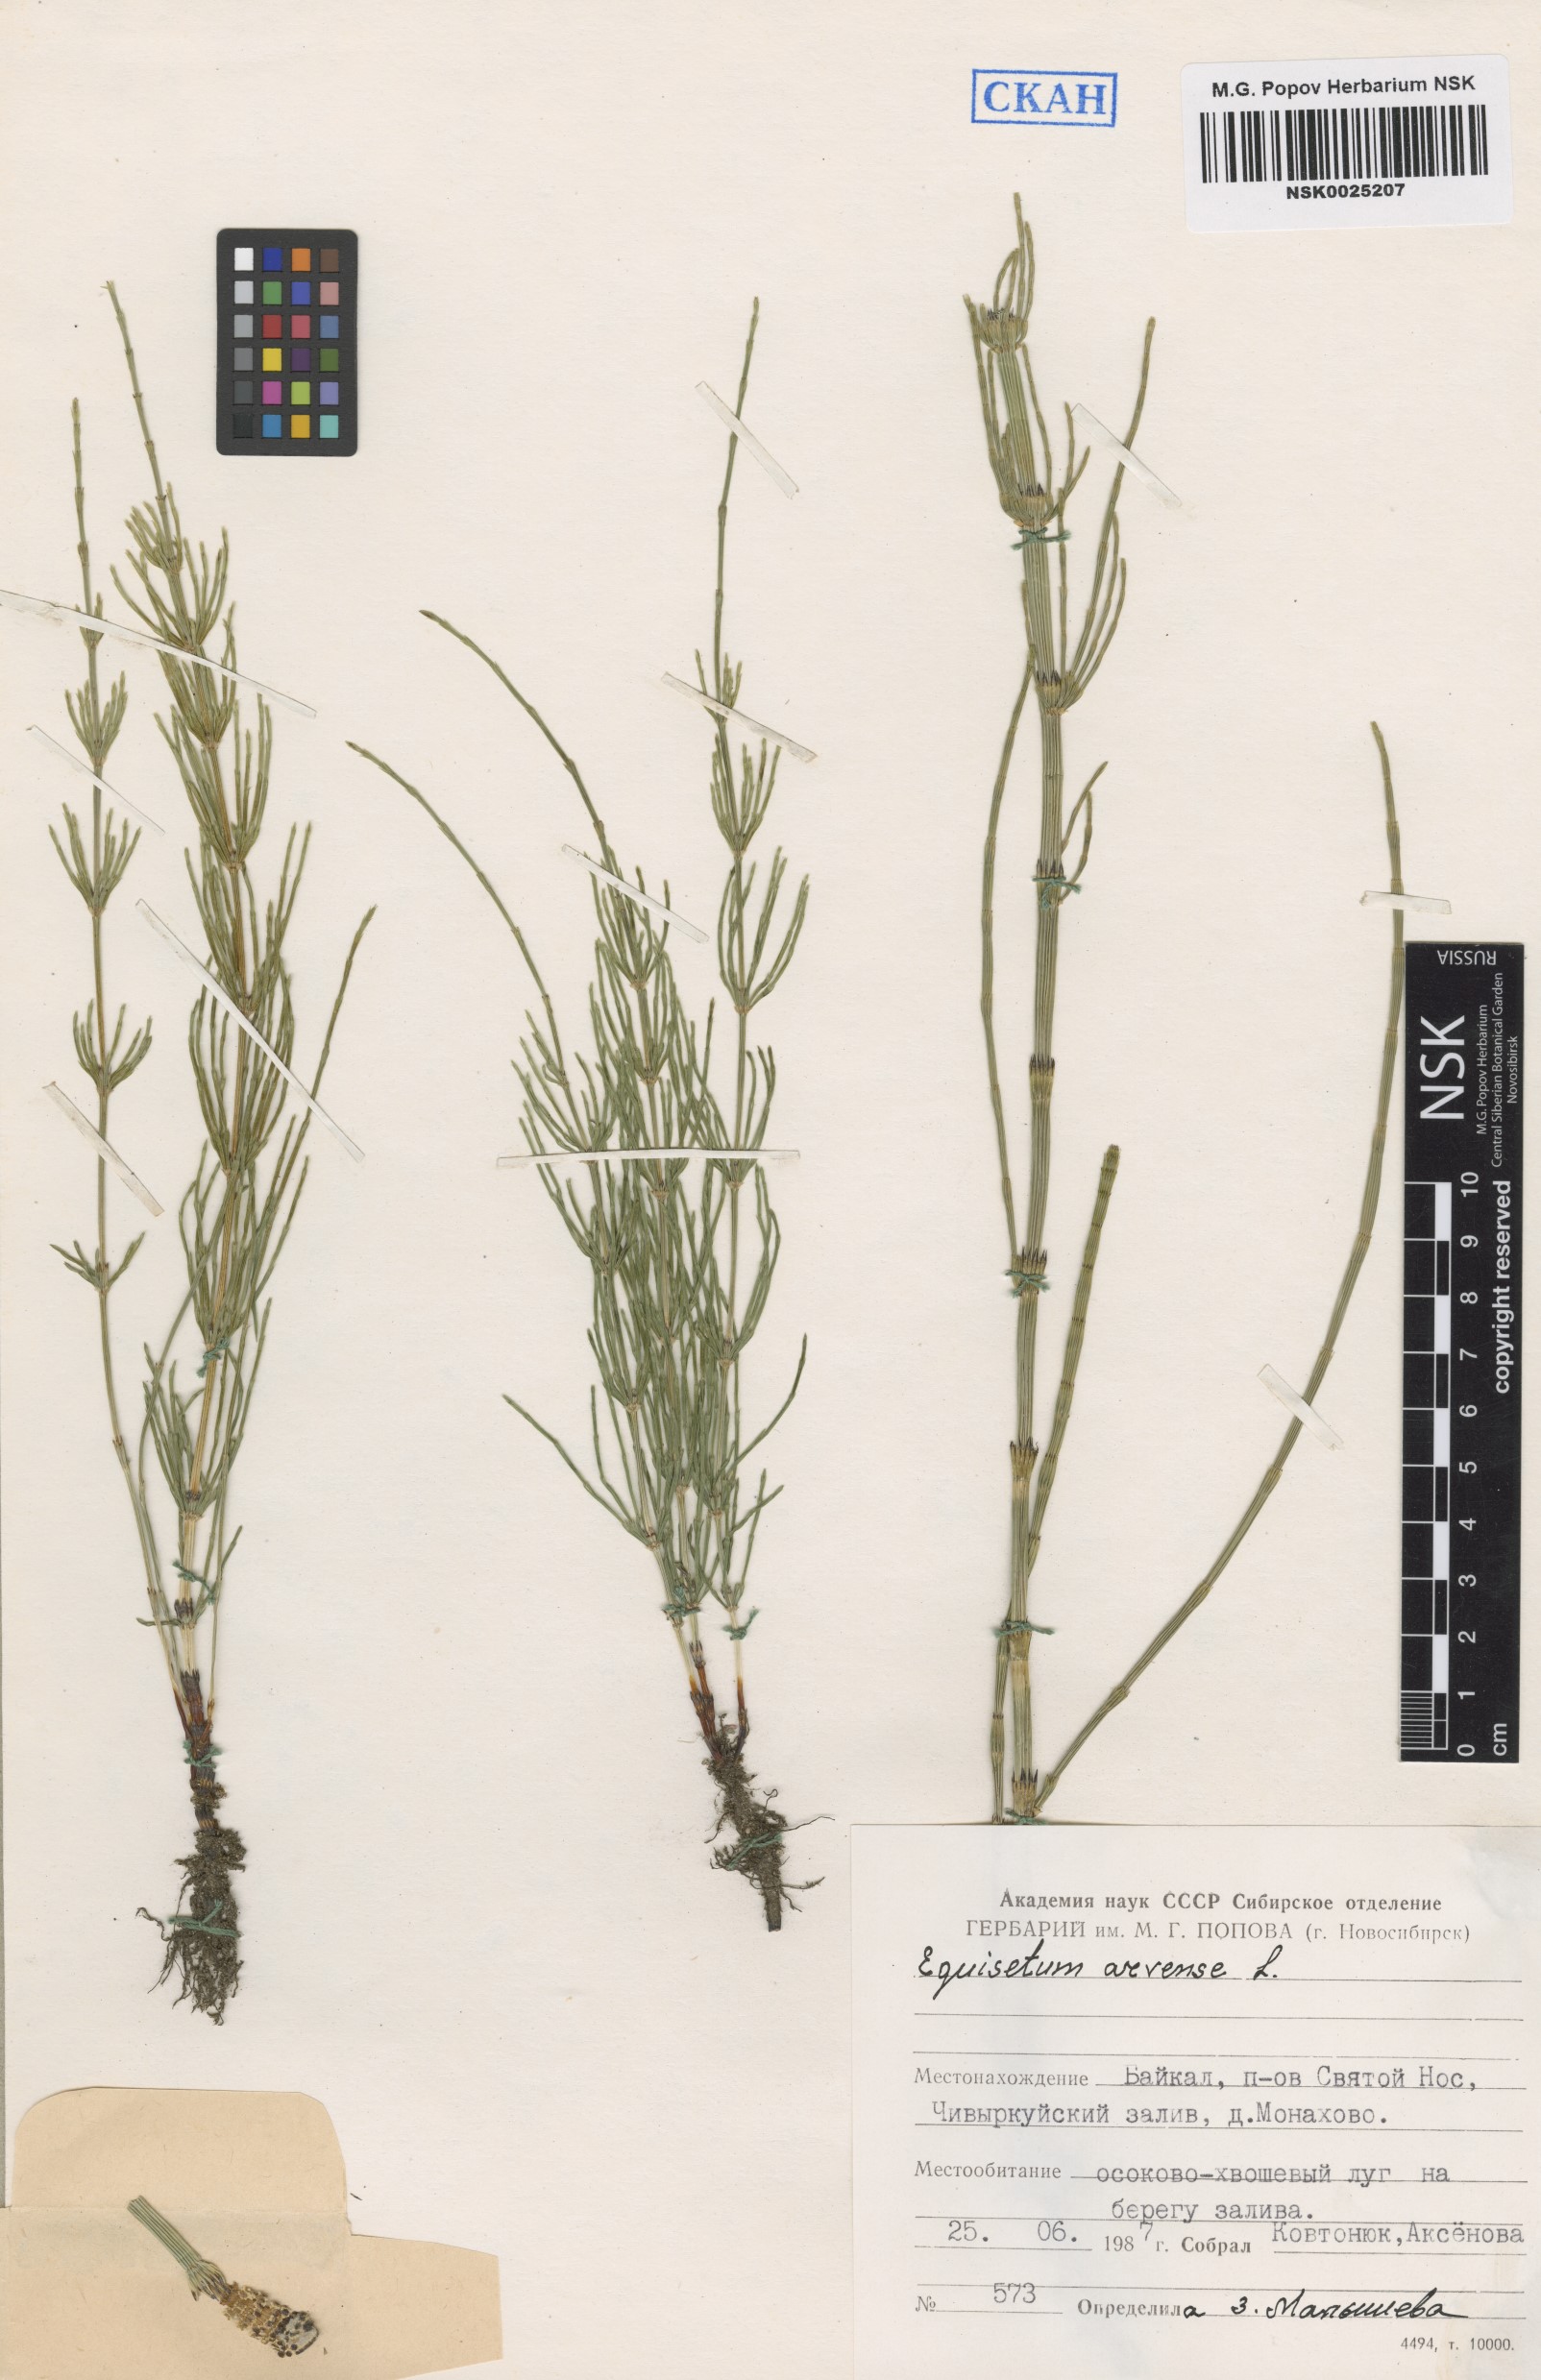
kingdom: Plantae
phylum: Tracheophyta
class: Polypodiopsida
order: Equisetales
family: Equisetaceae
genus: Equisetum
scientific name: Equisetum arvense
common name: Field horsetail
